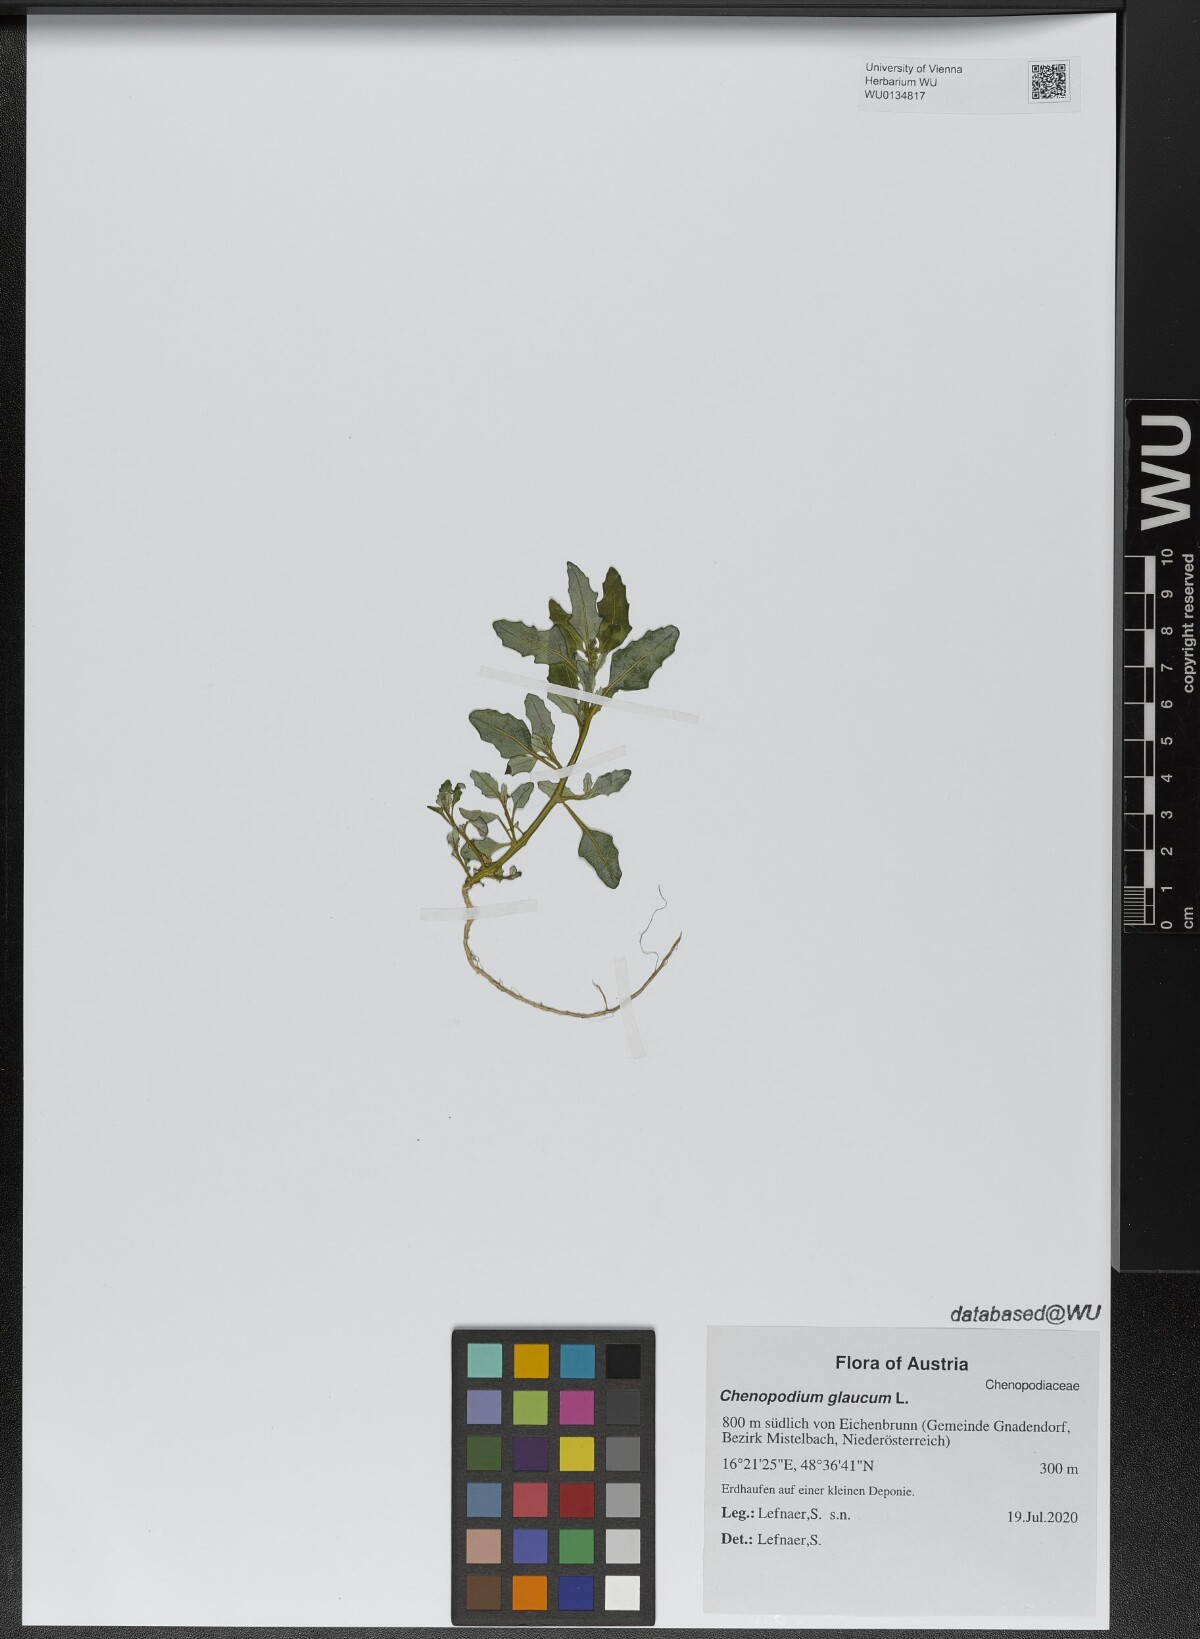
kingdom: Plantae
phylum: Tracheophyta
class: Magnoliopsida
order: Caryophyllales
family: Amaranthaceae
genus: Oxybasis
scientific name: Oxybasis glauca
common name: Glaucous goosefoot
